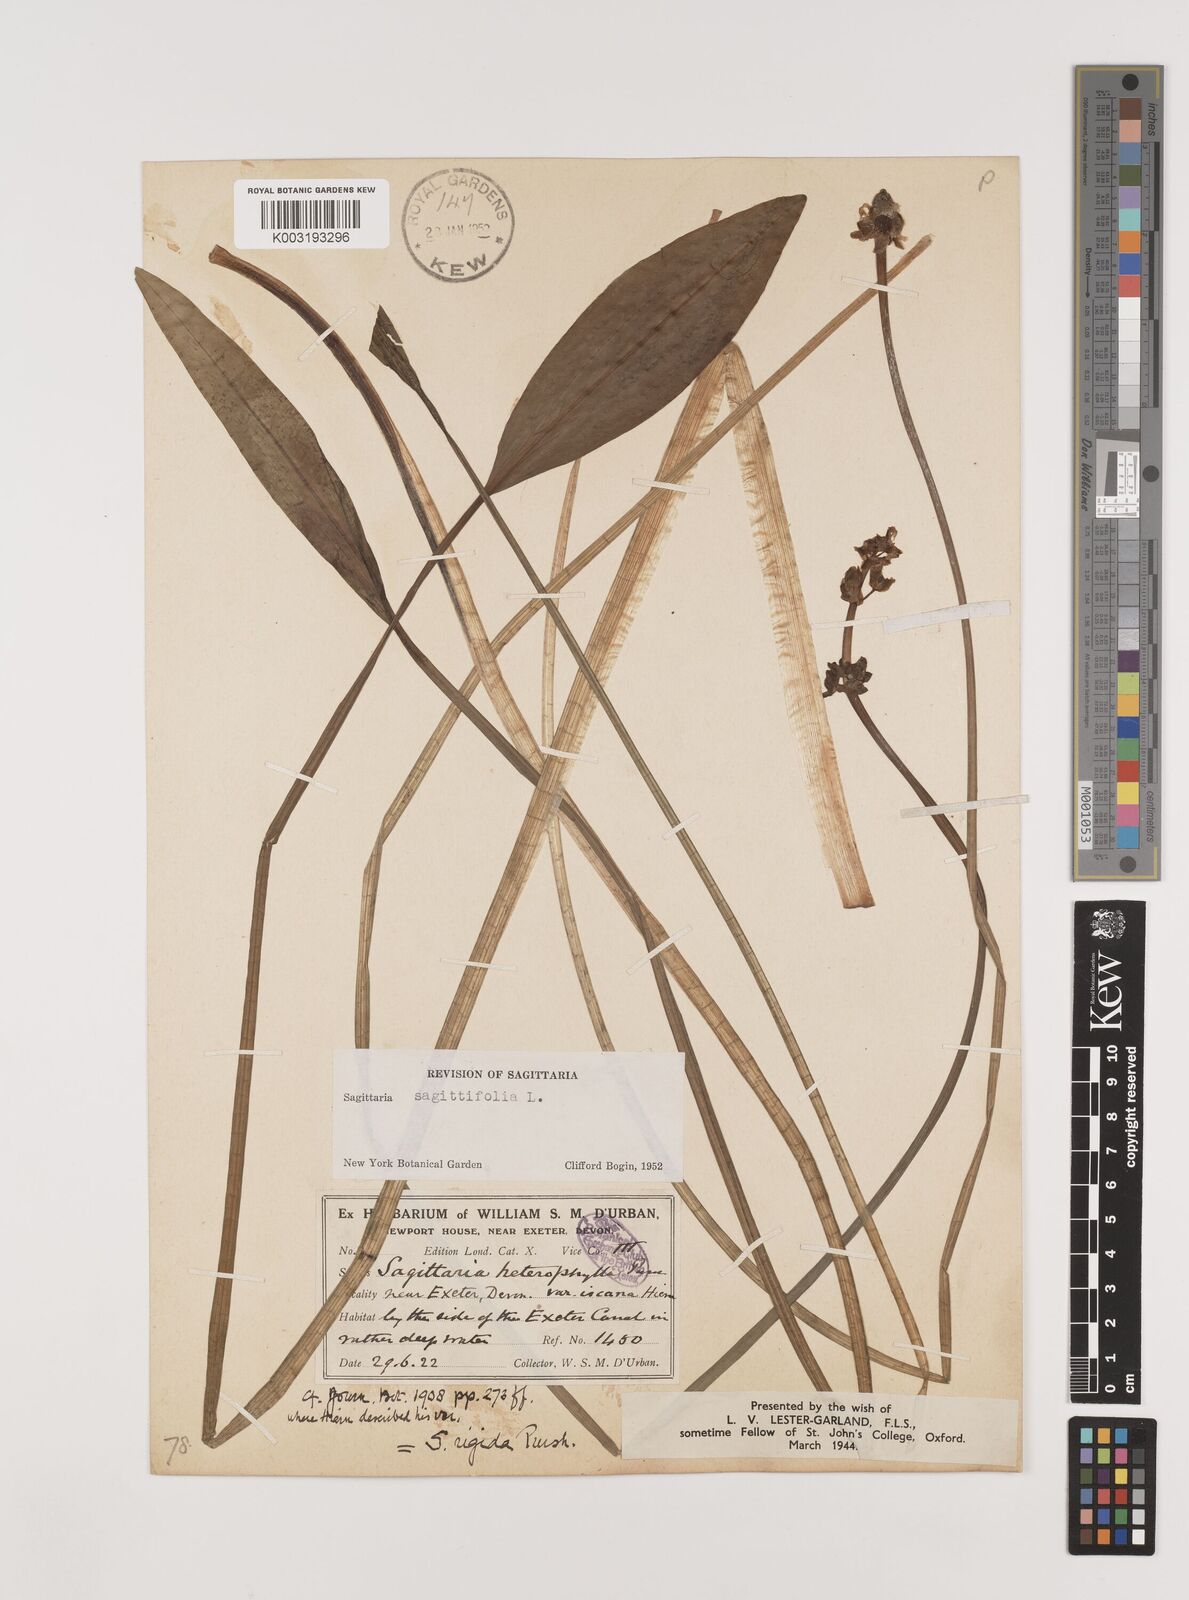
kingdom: Plantae
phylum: Tracheophyta
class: Liliopsida
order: Alismatales
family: Alismataceae
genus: Sagittaria
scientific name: Sagittaria rigida
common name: Canadian arrowhead
